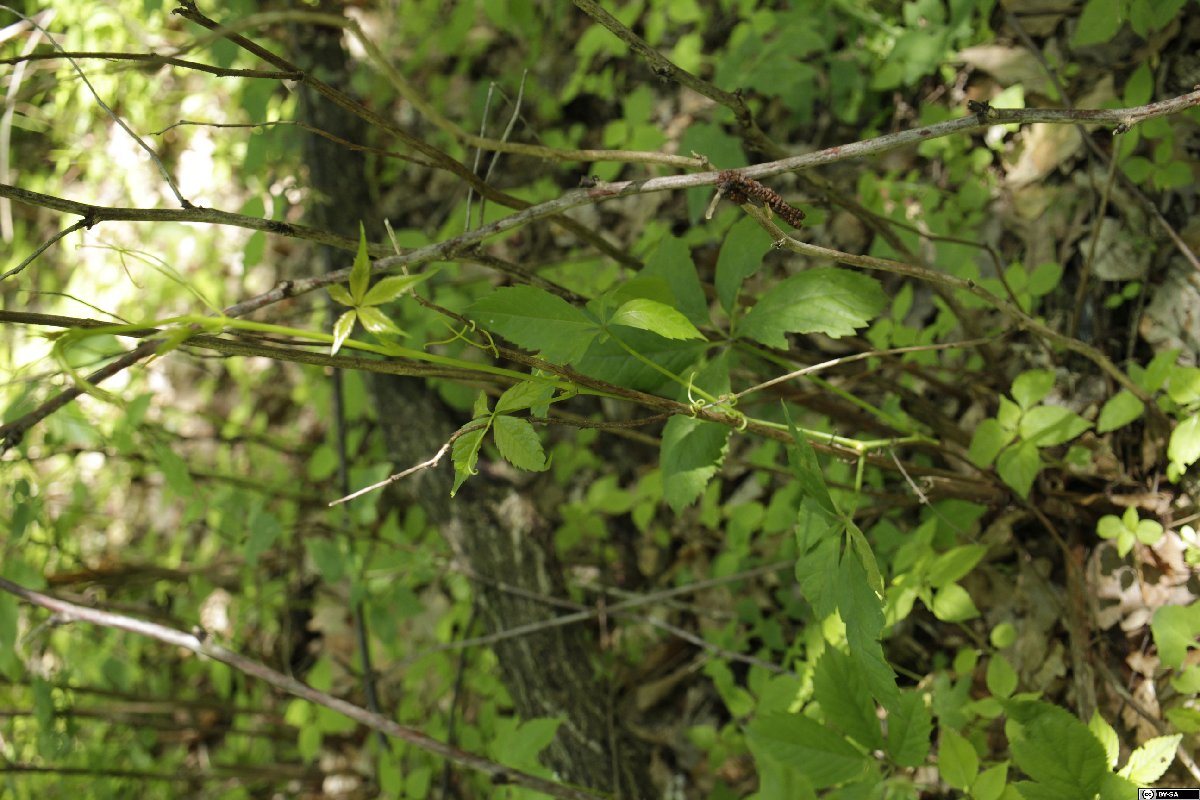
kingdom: Plantae
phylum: Tracheophyta
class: Magnoliopsida
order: Vitales
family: Vitaceae
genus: Parthenocissus
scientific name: Parthenocissus inserta
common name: False virginia-creeper
